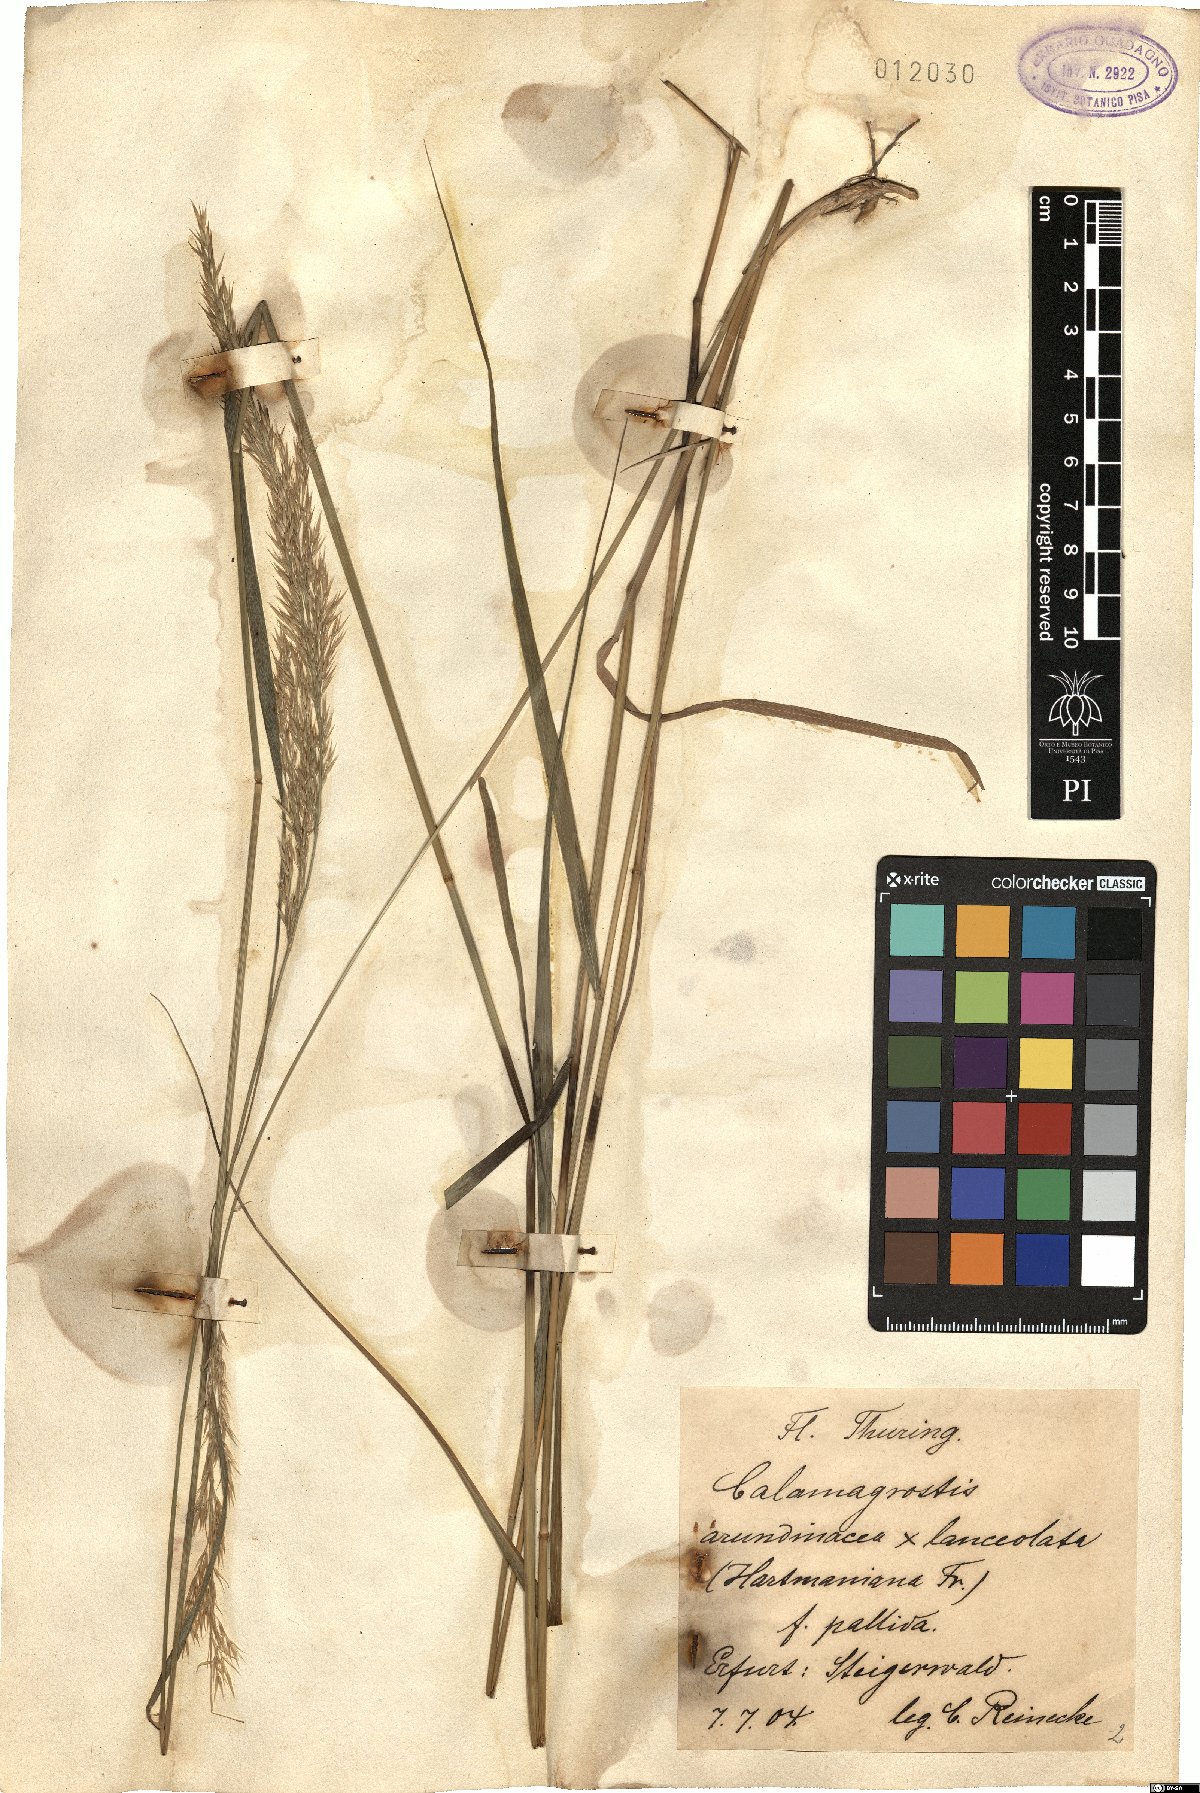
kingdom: Plantae
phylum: Tracheophyta
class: Liliopsida
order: Poales
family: Poaceae
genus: Calamagrostis
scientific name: Calamagrostis hartmaniana
